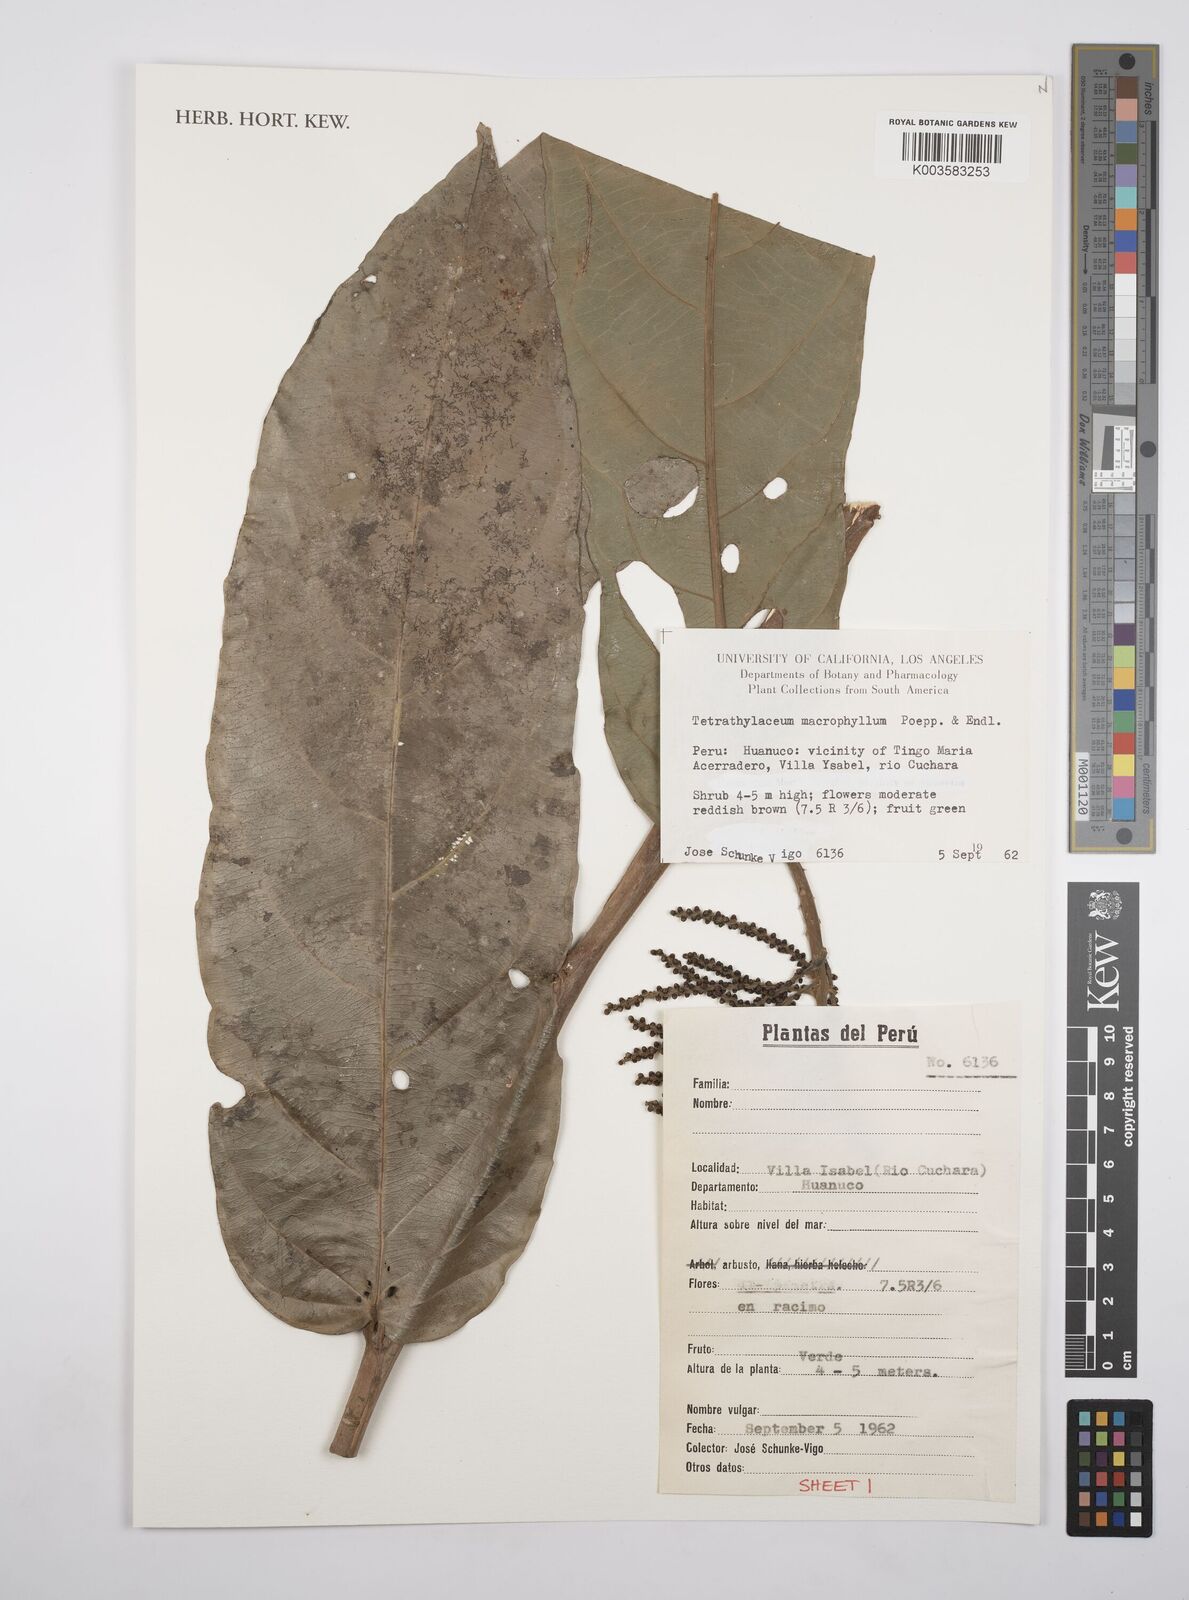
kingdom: Plantae
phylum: Tracheophyta
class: Magnoliopsida
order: Malpighiales
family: Salicaceae
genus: Tetrathylacium
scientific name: Tetrathylacium macrophyllum
